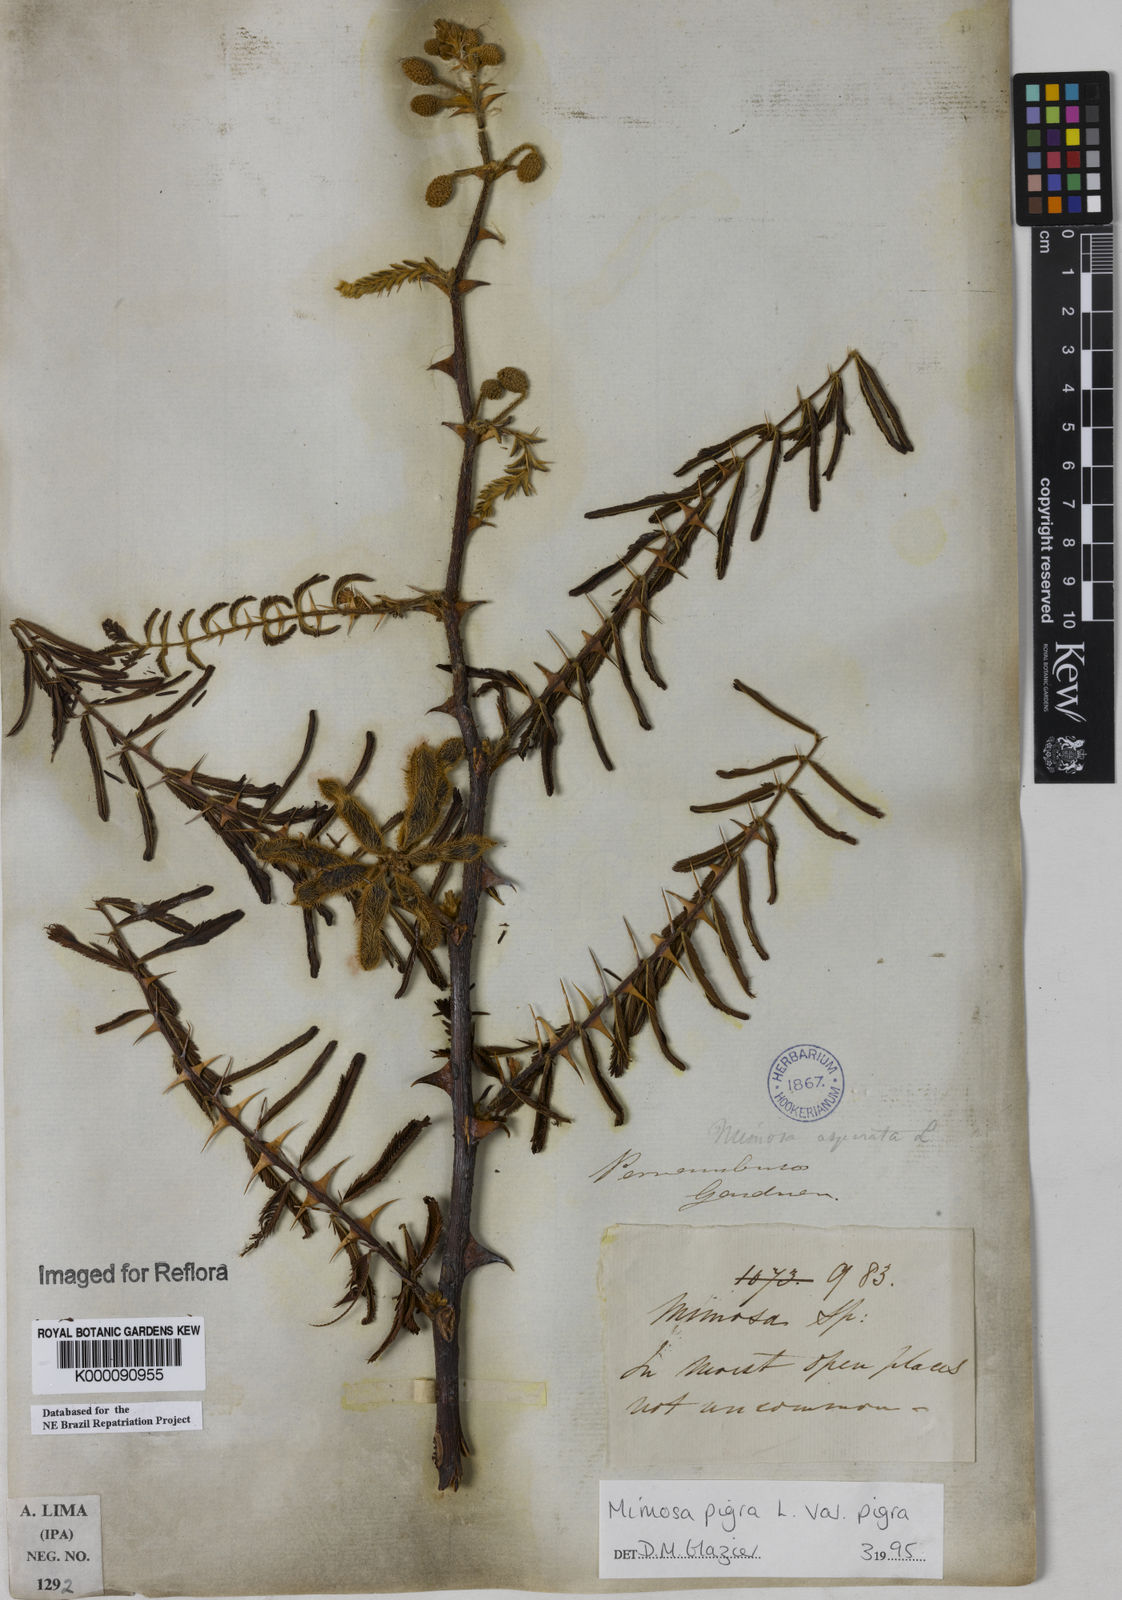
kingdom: Plantae
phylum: Tracheophyta
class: Magnoliopsida
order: Fabales
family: Fabaceae
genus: Mimosa
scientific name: Mimosa pigra
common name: Black mimosa
